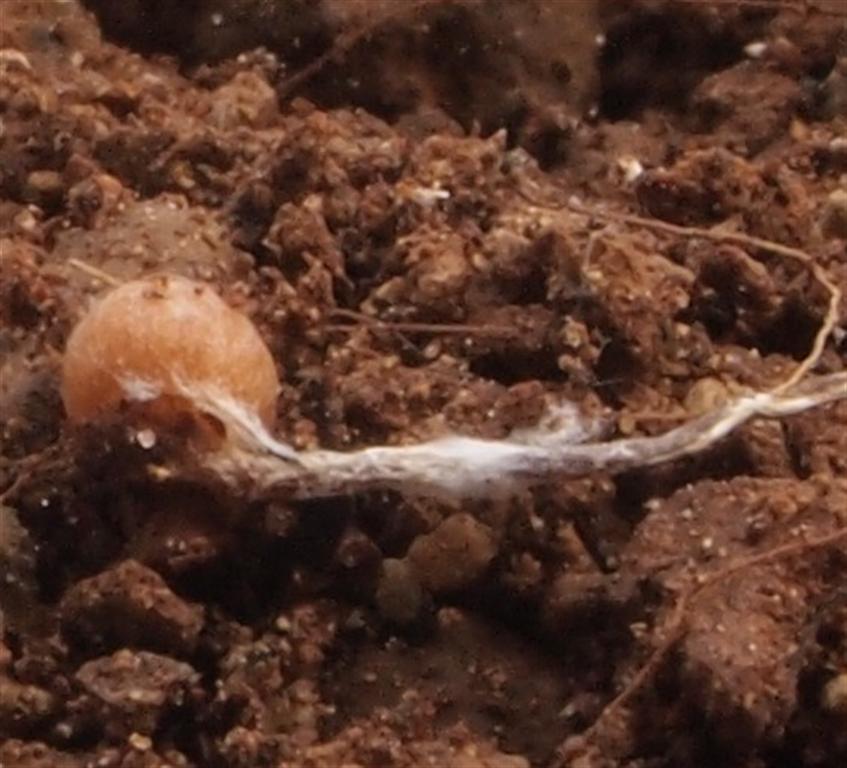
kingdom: Fungi
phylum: Basidiomycota
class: Agaricomycetes
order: Agaricales
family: Hymenogastraceae
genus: Galerina
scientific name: Galerina nana
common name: dværg-hjelmhat
